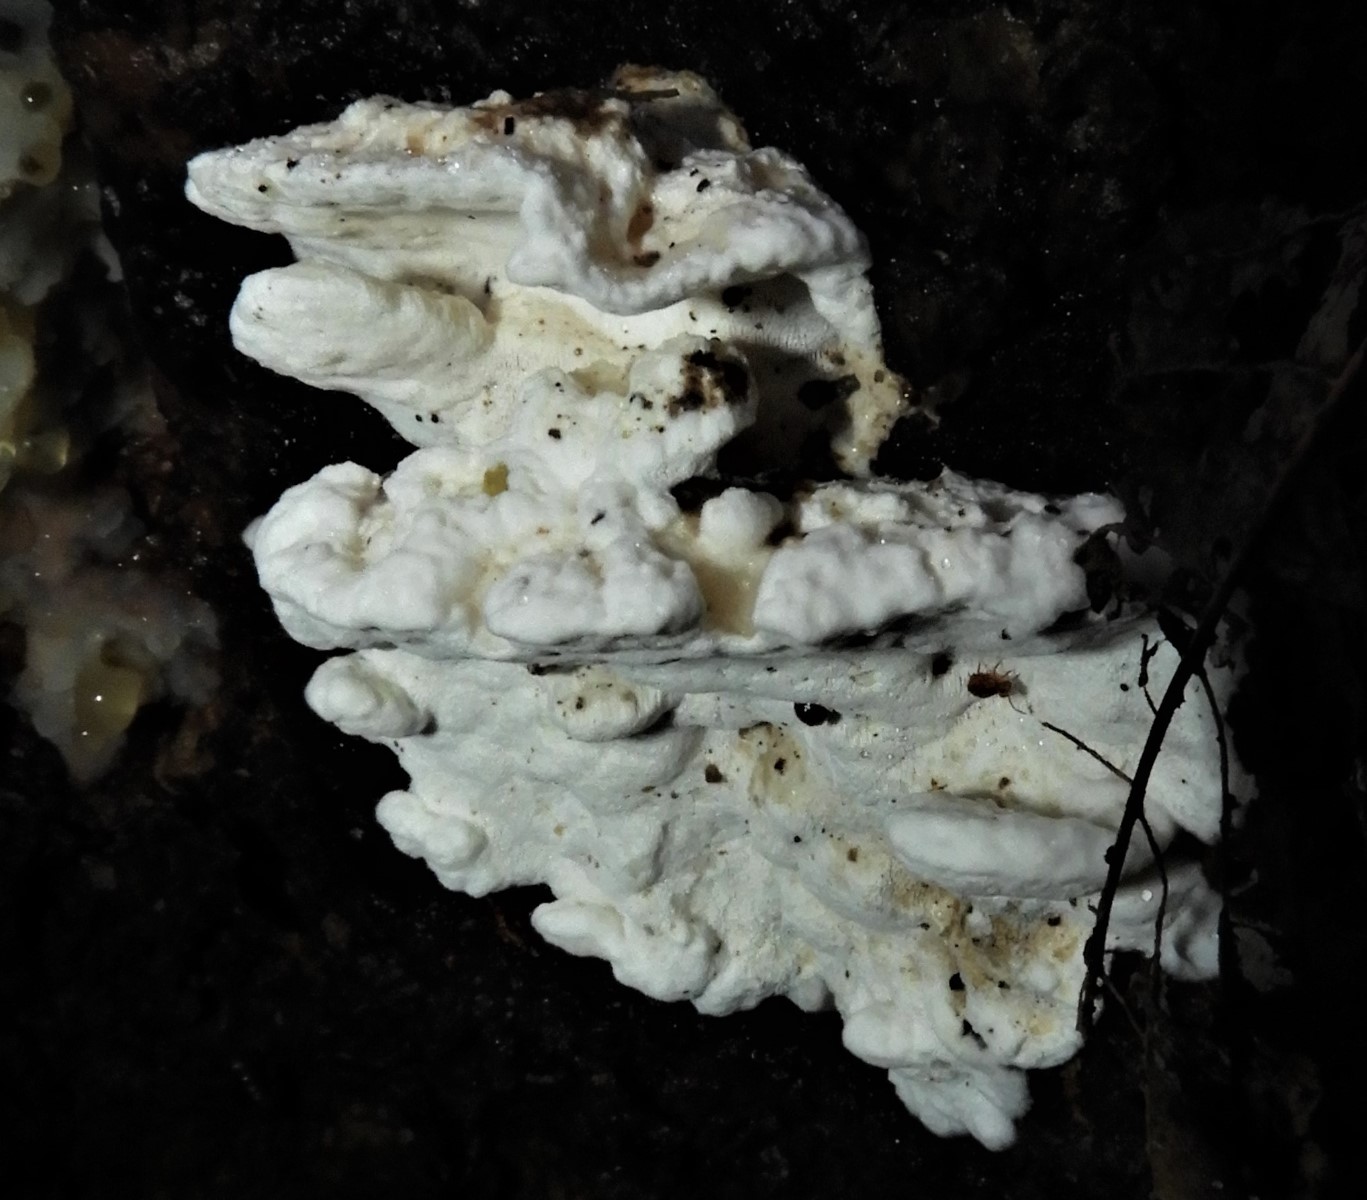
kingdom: Fungi
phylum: Basidiomycota
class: Agaricomycetes
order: Polyporales
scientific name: Polyporales
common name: poresvampordenen
